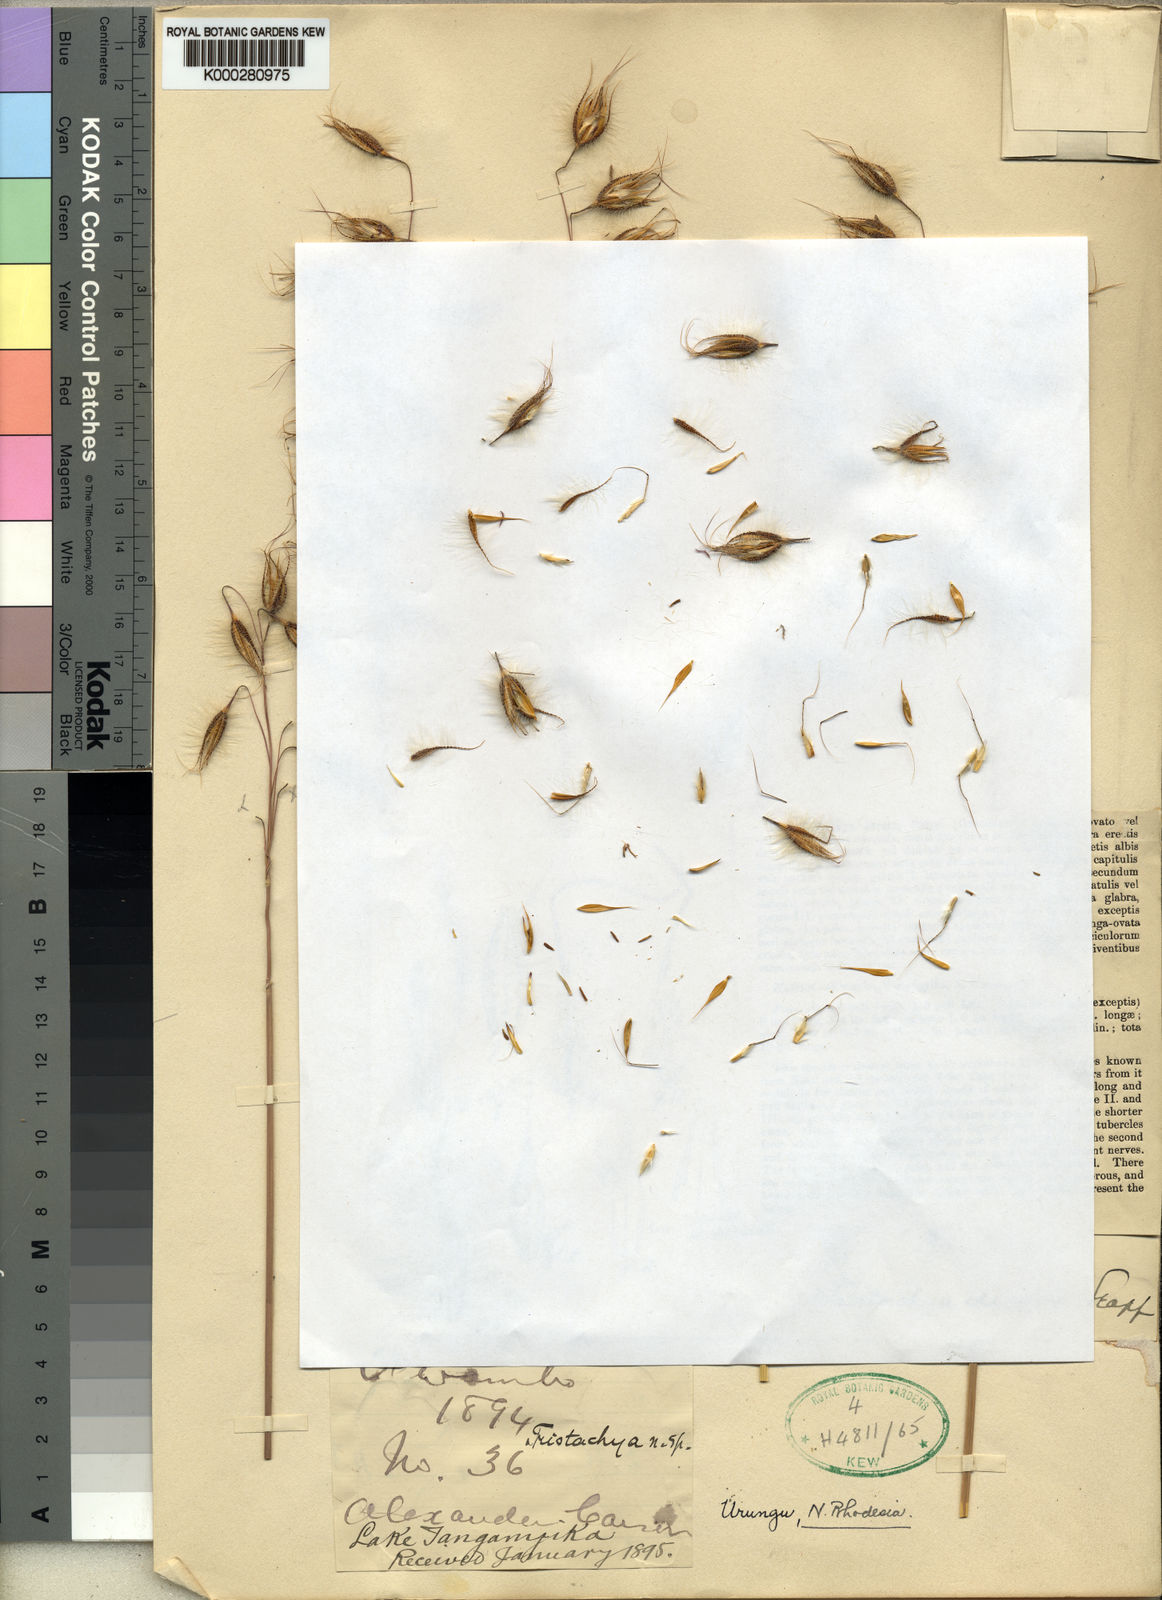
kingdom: Plantae
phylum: Tracheophyta
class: Liliopsida
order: Poales
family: Poaceae
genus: Zonotriche
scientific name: Zonotriche decora
